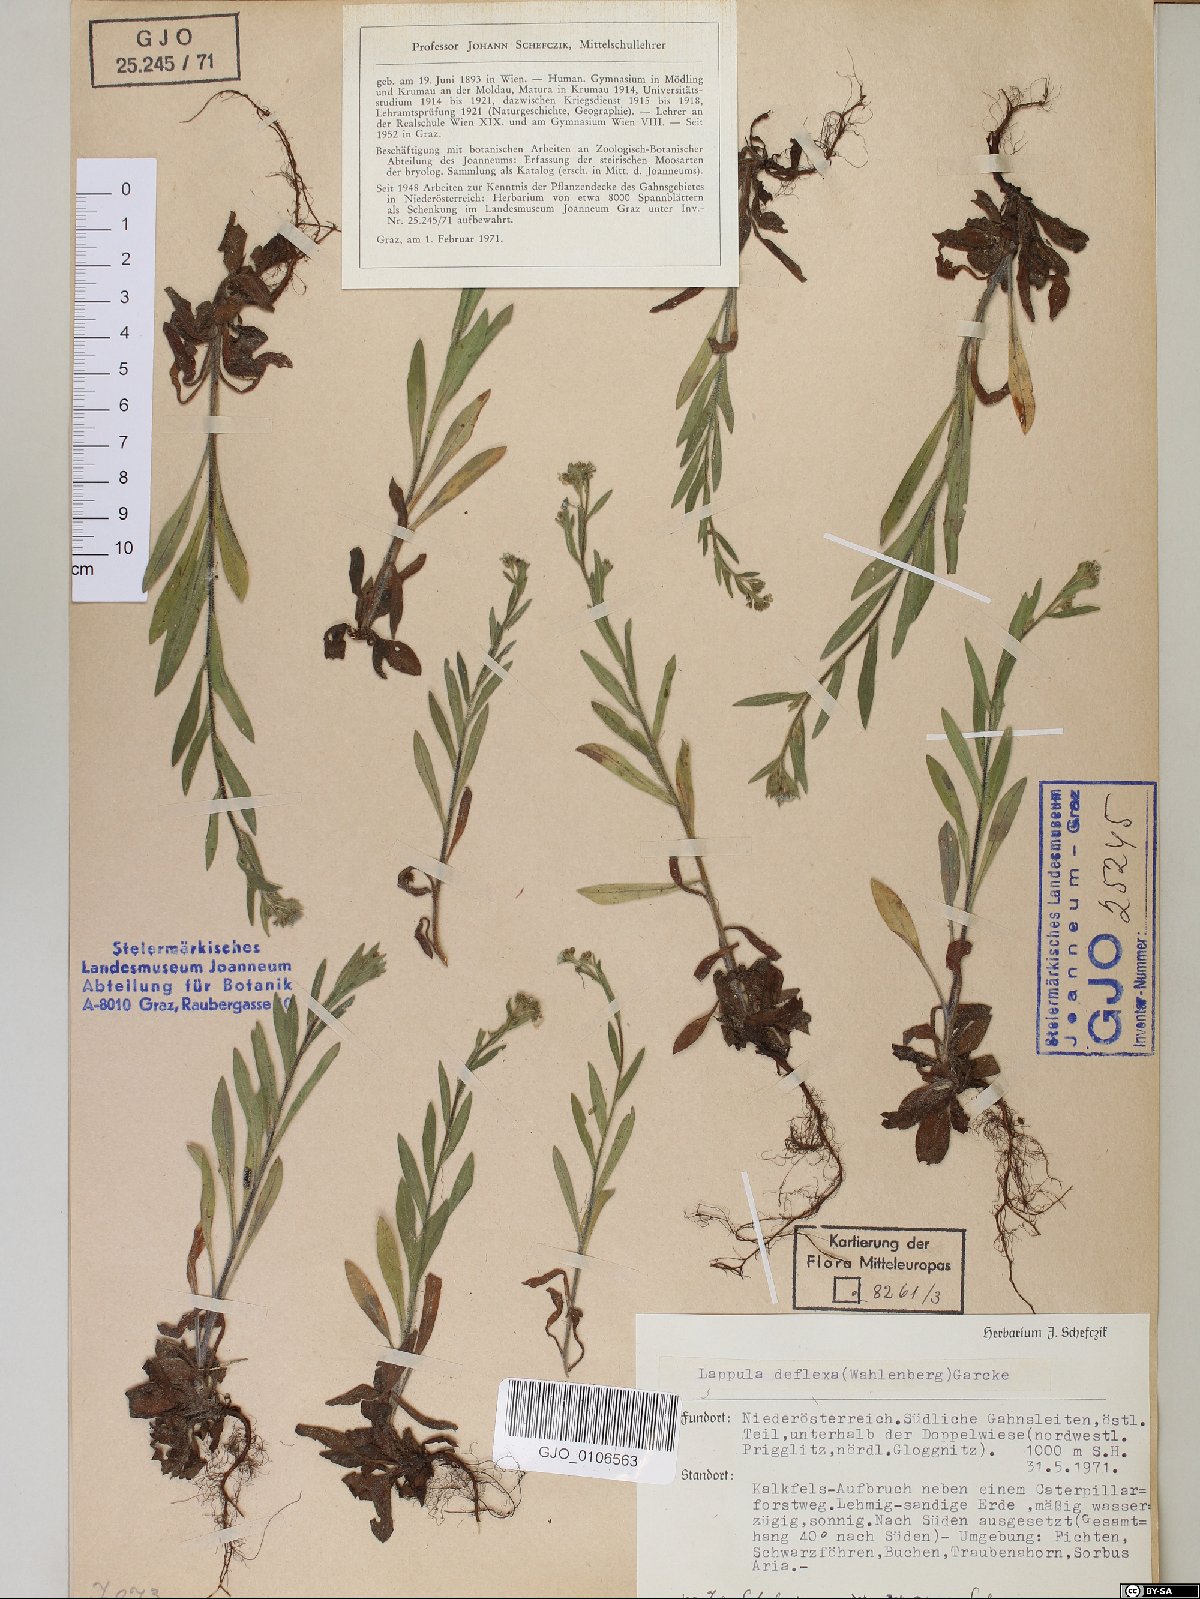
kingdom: Plantae
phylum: Tracheophyta
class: Magnoliopsida
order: Boraginales
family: Boraginaceae
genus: Hackelia
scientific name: Hackelia deflexa
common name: Nodding stickseed
